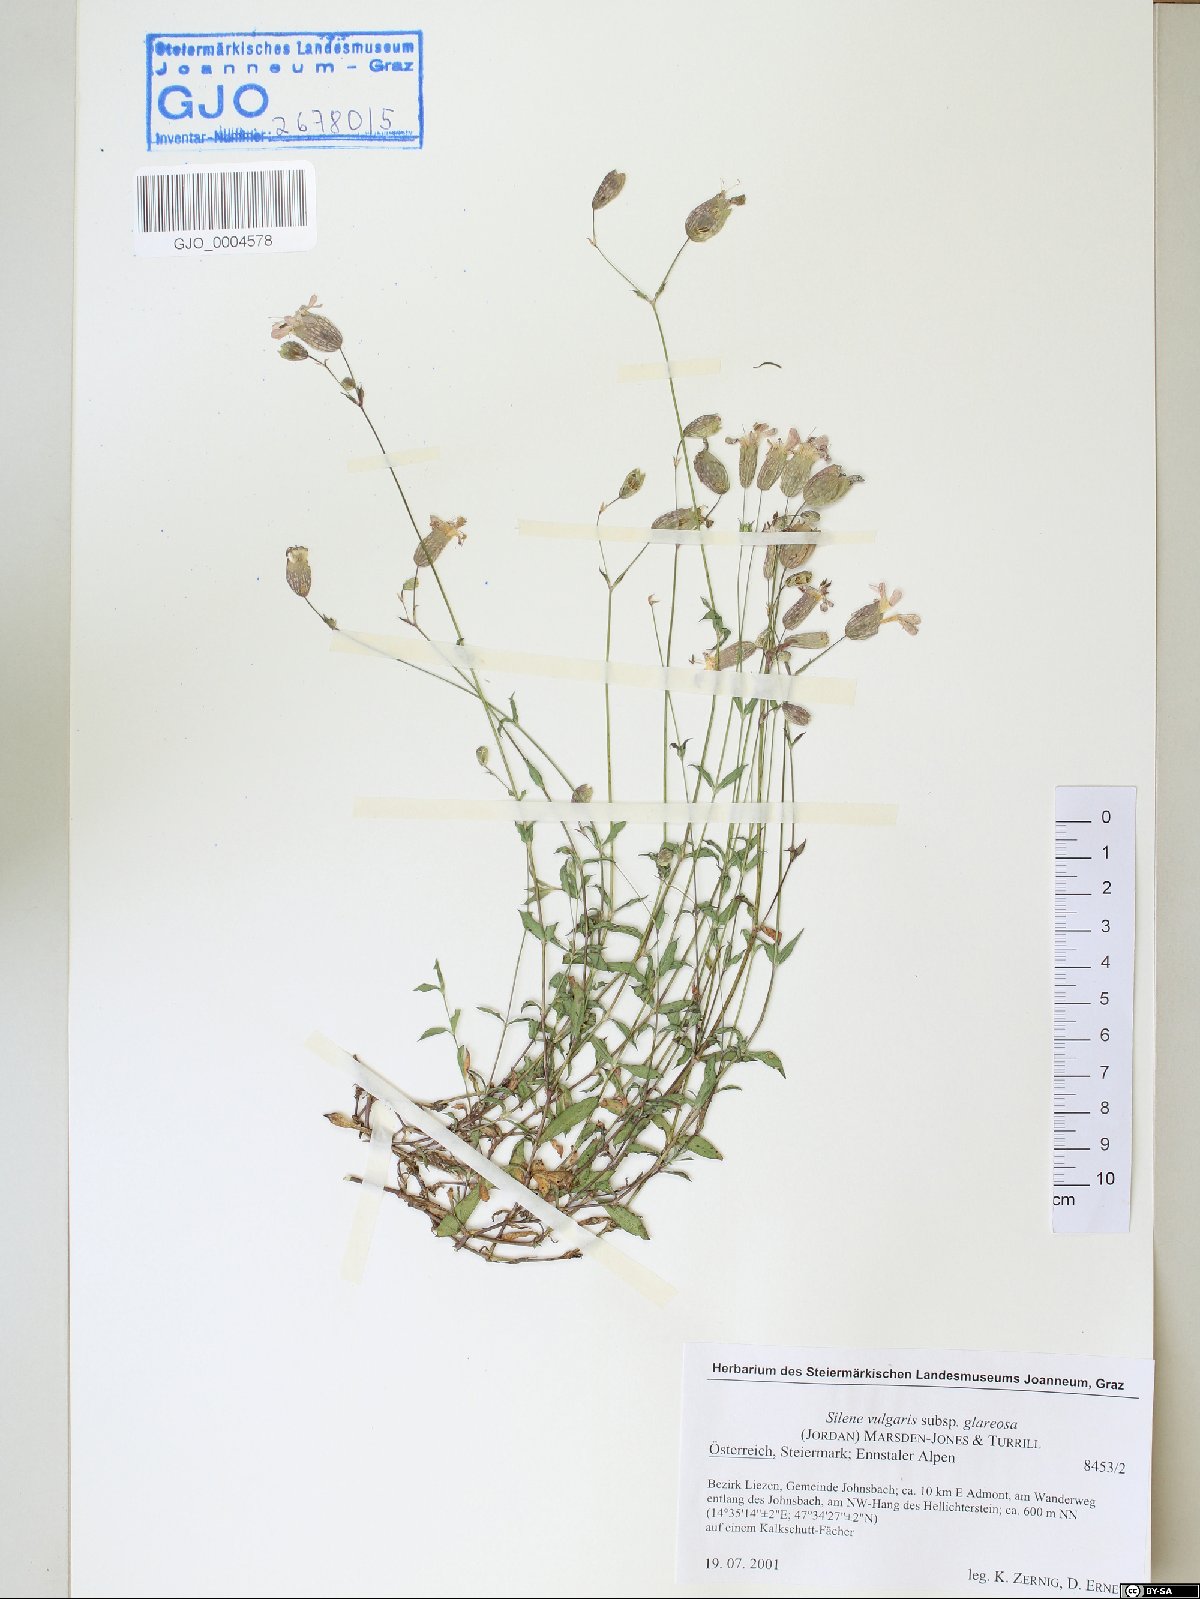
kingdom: Plantae
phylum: Tracheophyta
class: Magnoliopsida
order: Caryophyllales
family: Caryophyllaceae
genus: Silene
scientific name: Silene glareosa
